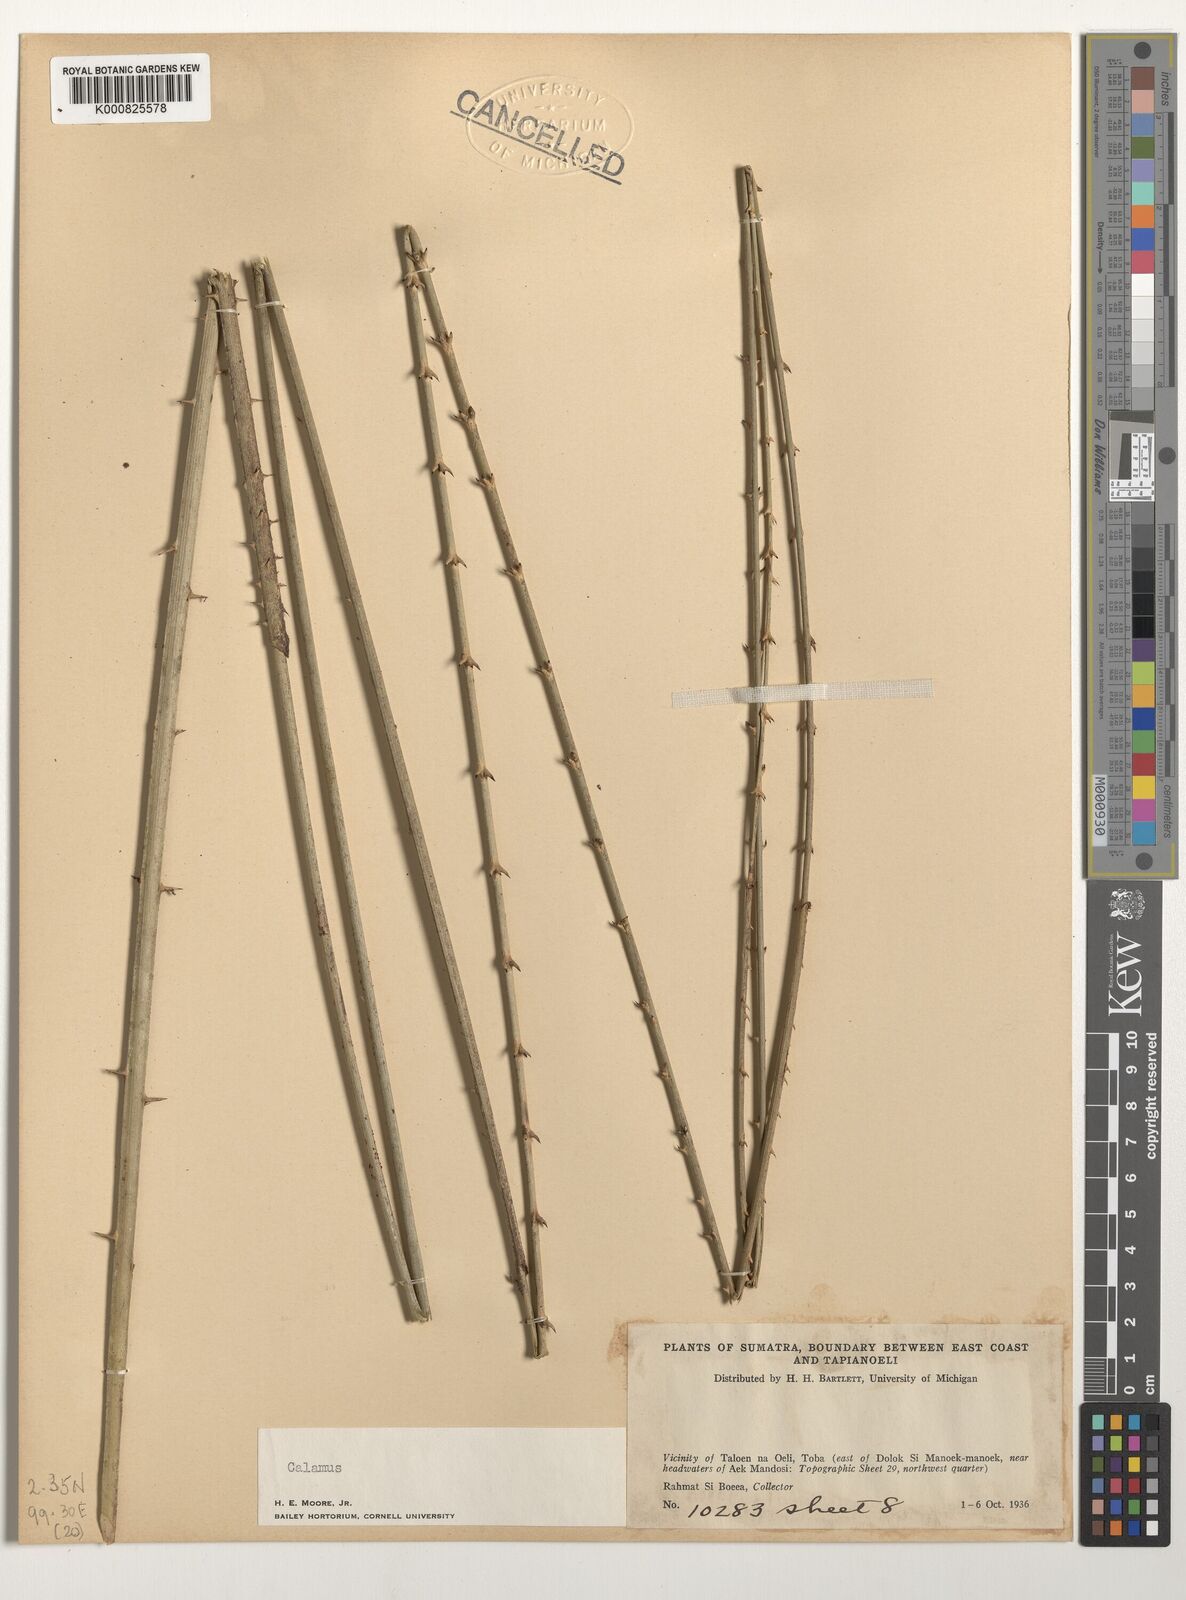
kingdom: Plantae
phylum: Tracheophyta
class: Liliopsida
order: Arecales
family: Arecaceae
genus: Calamus
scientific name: Calamus
